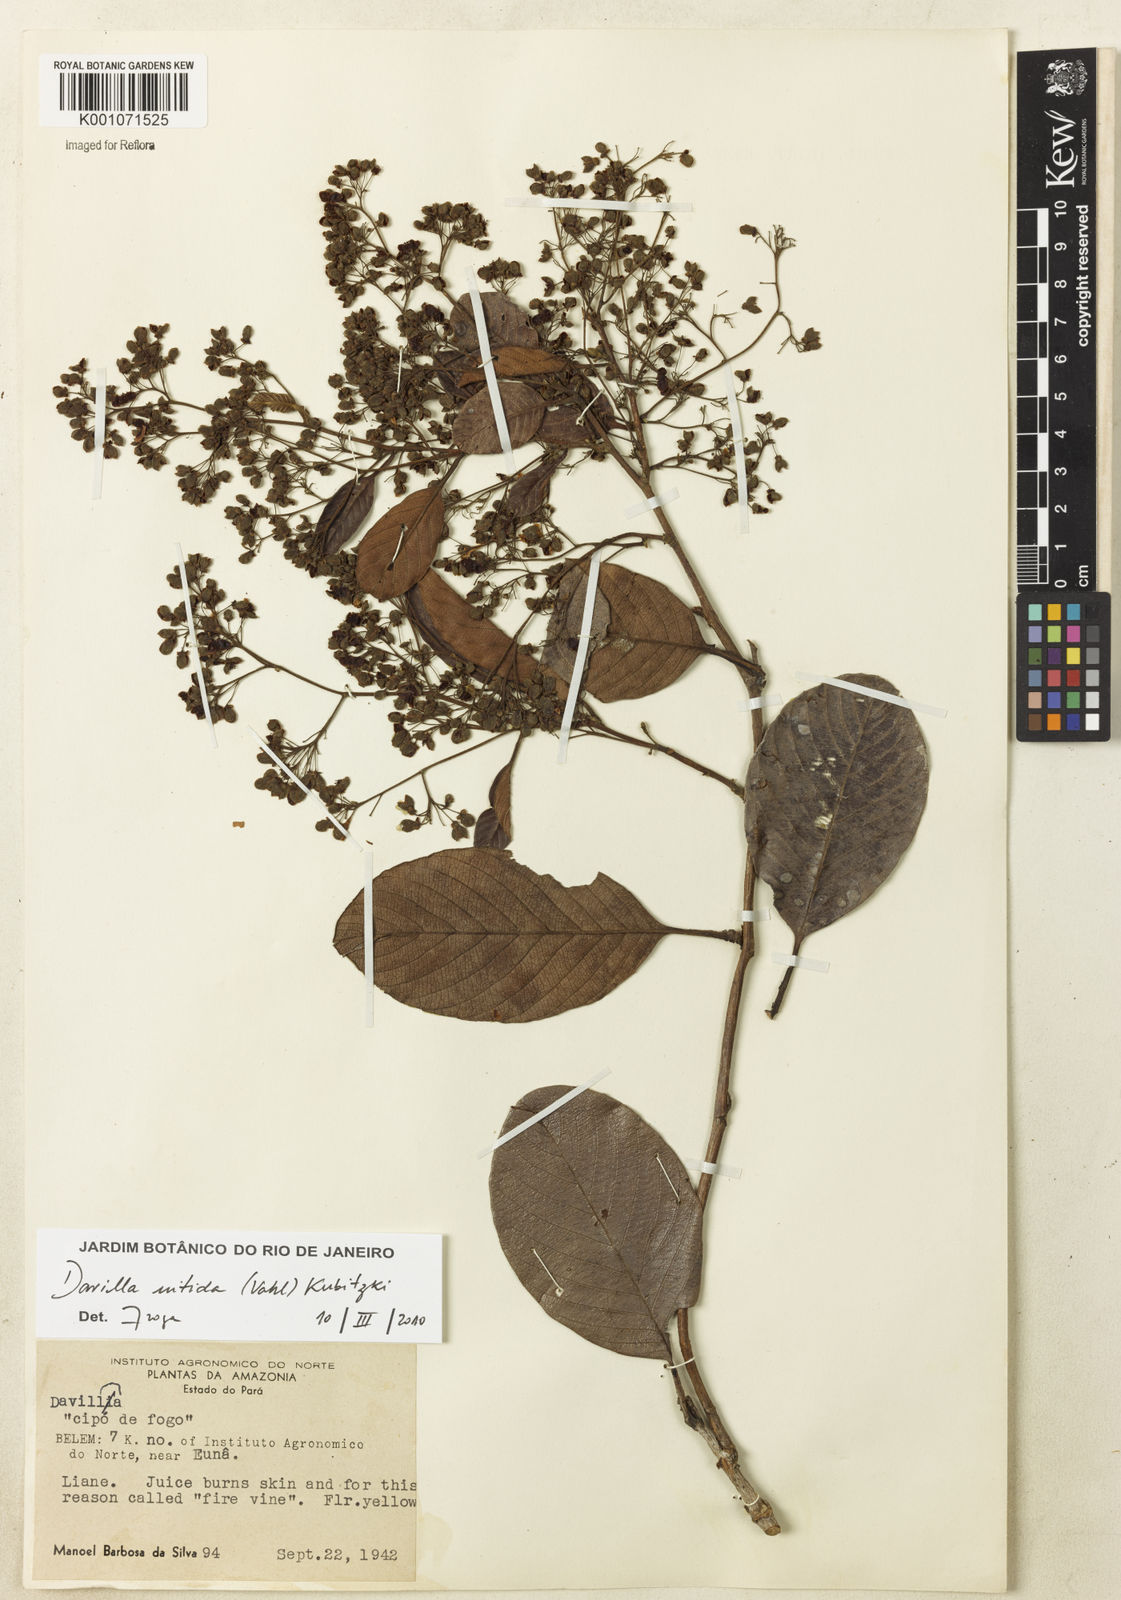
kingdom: Plantae
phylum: Tracheophyta
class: Magnoliopsida
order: Dilleniales
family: Dilleniaceae
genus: Davilla
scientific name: Davilla nitida
